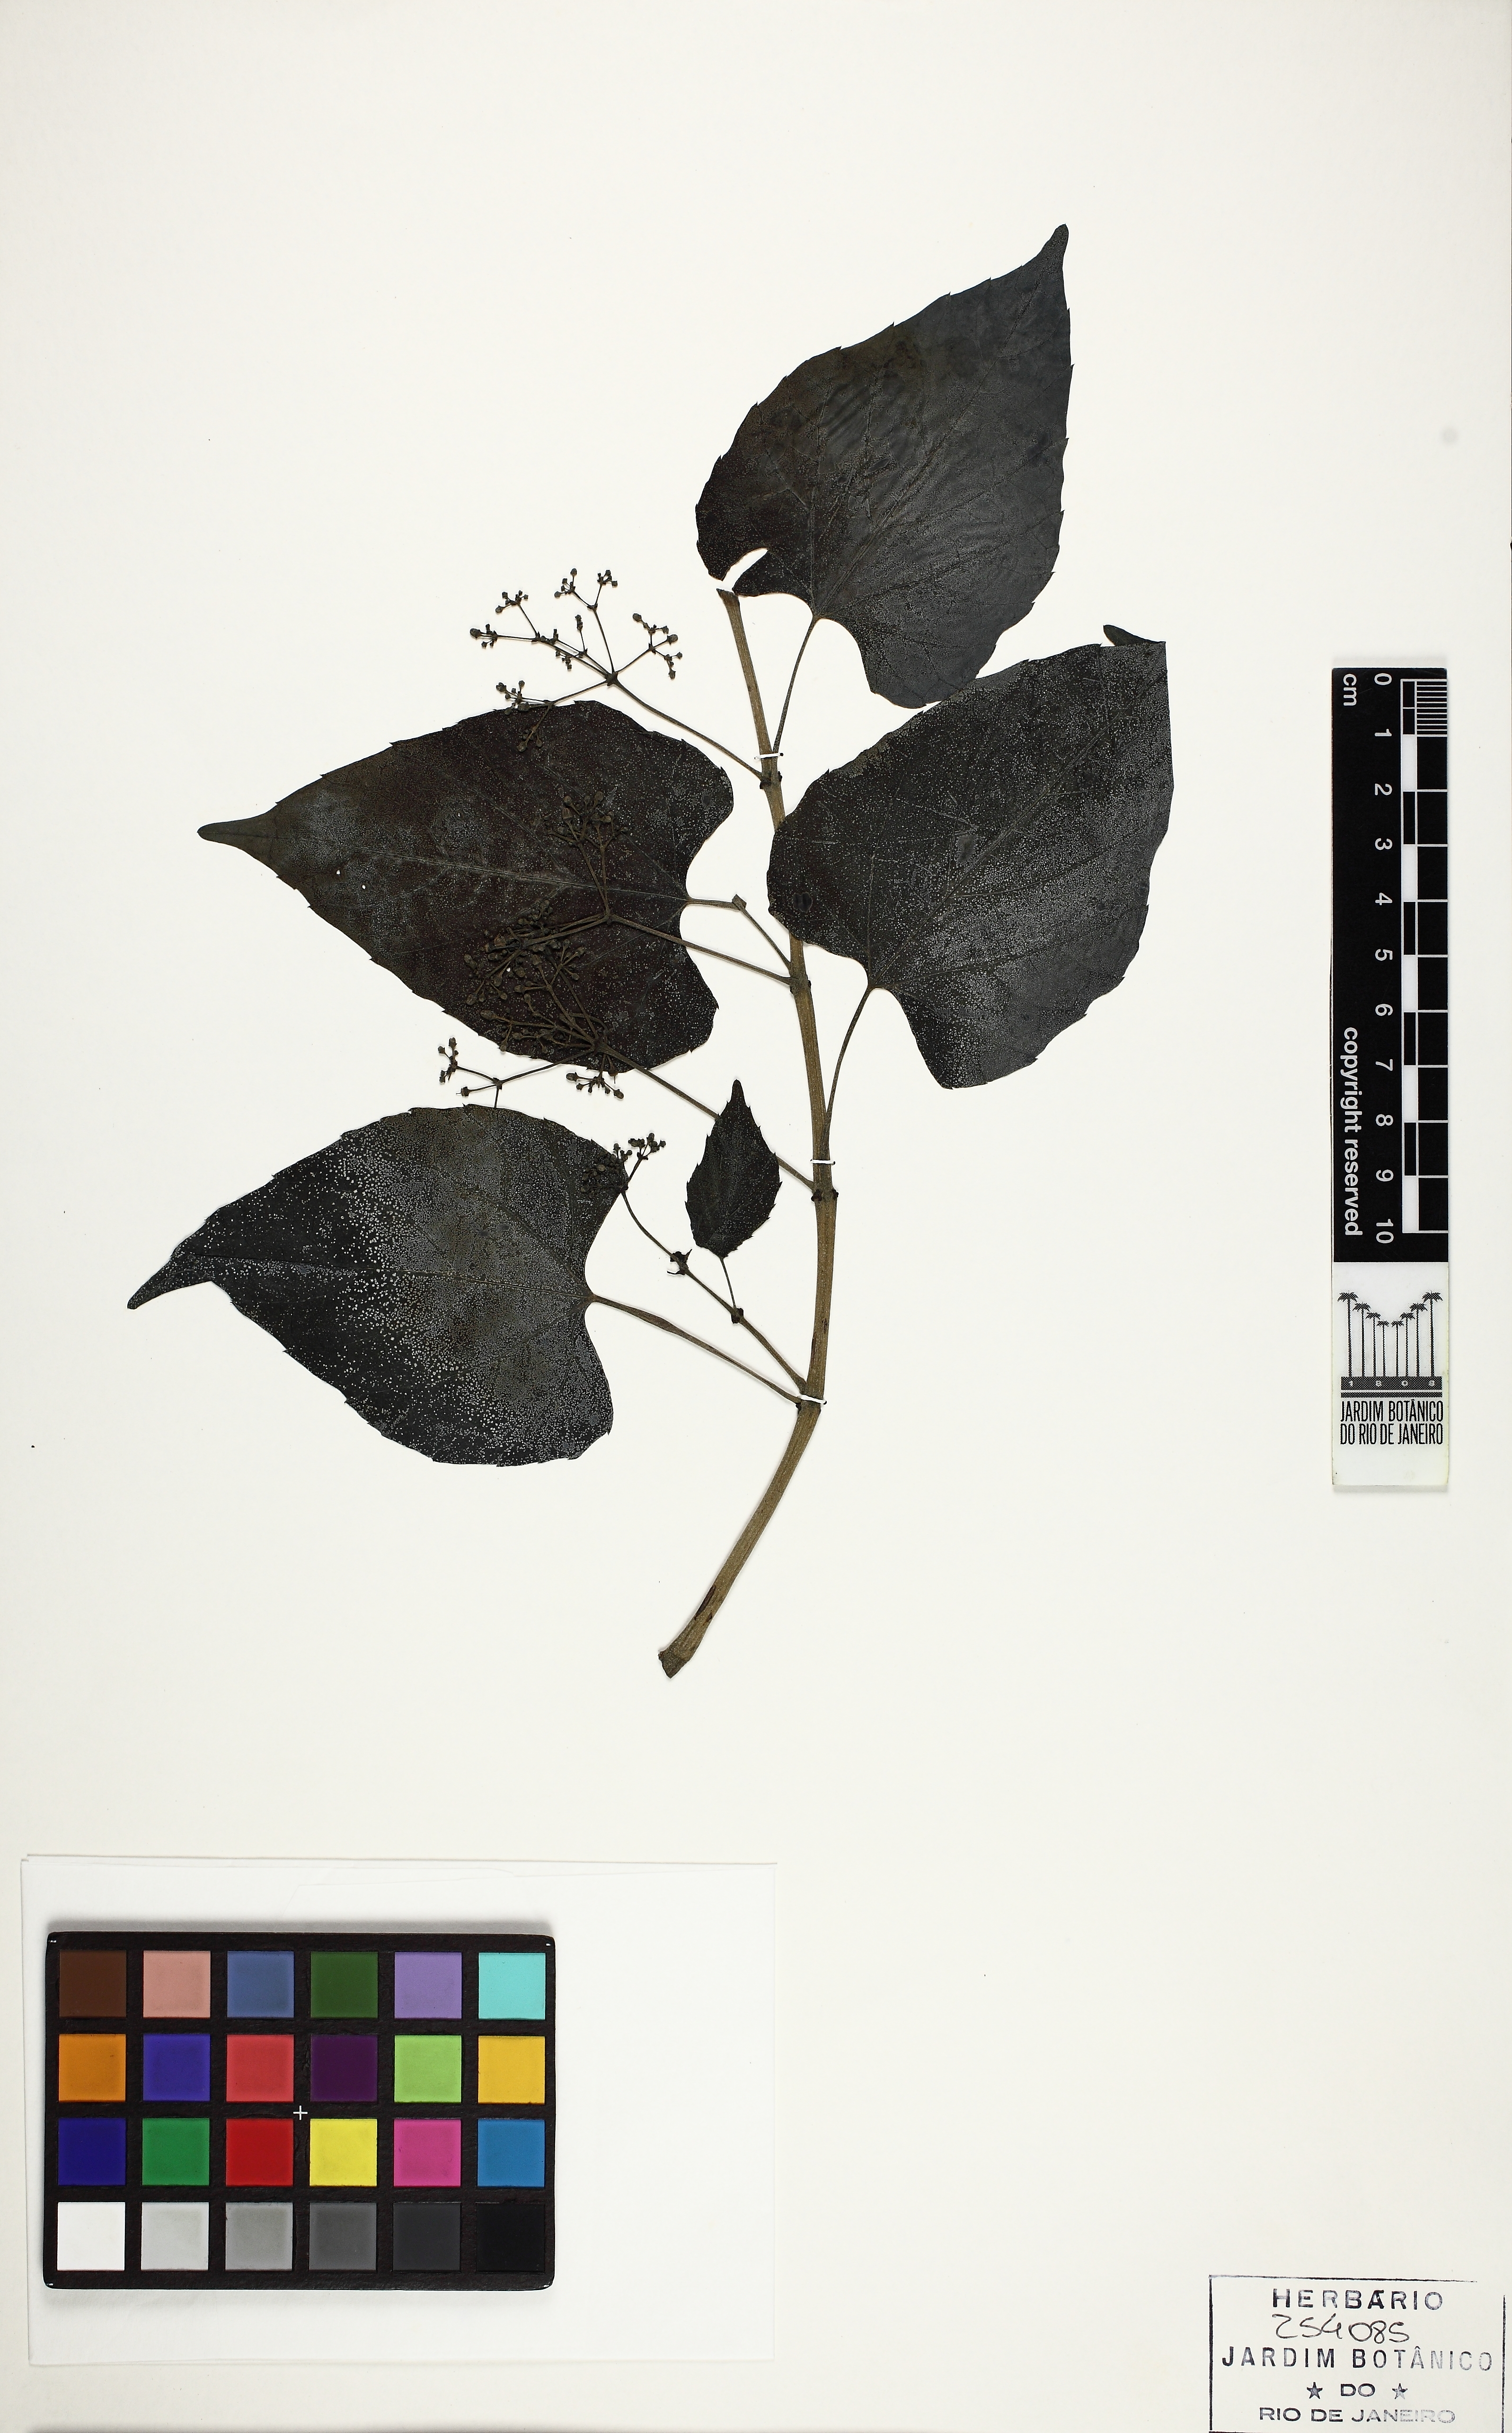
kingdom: Plantae
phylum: Tracheophyta
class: Magnoliopsida
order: Vitales
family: Vitaceae
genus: Cissus
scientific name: Cissus tinctoria
